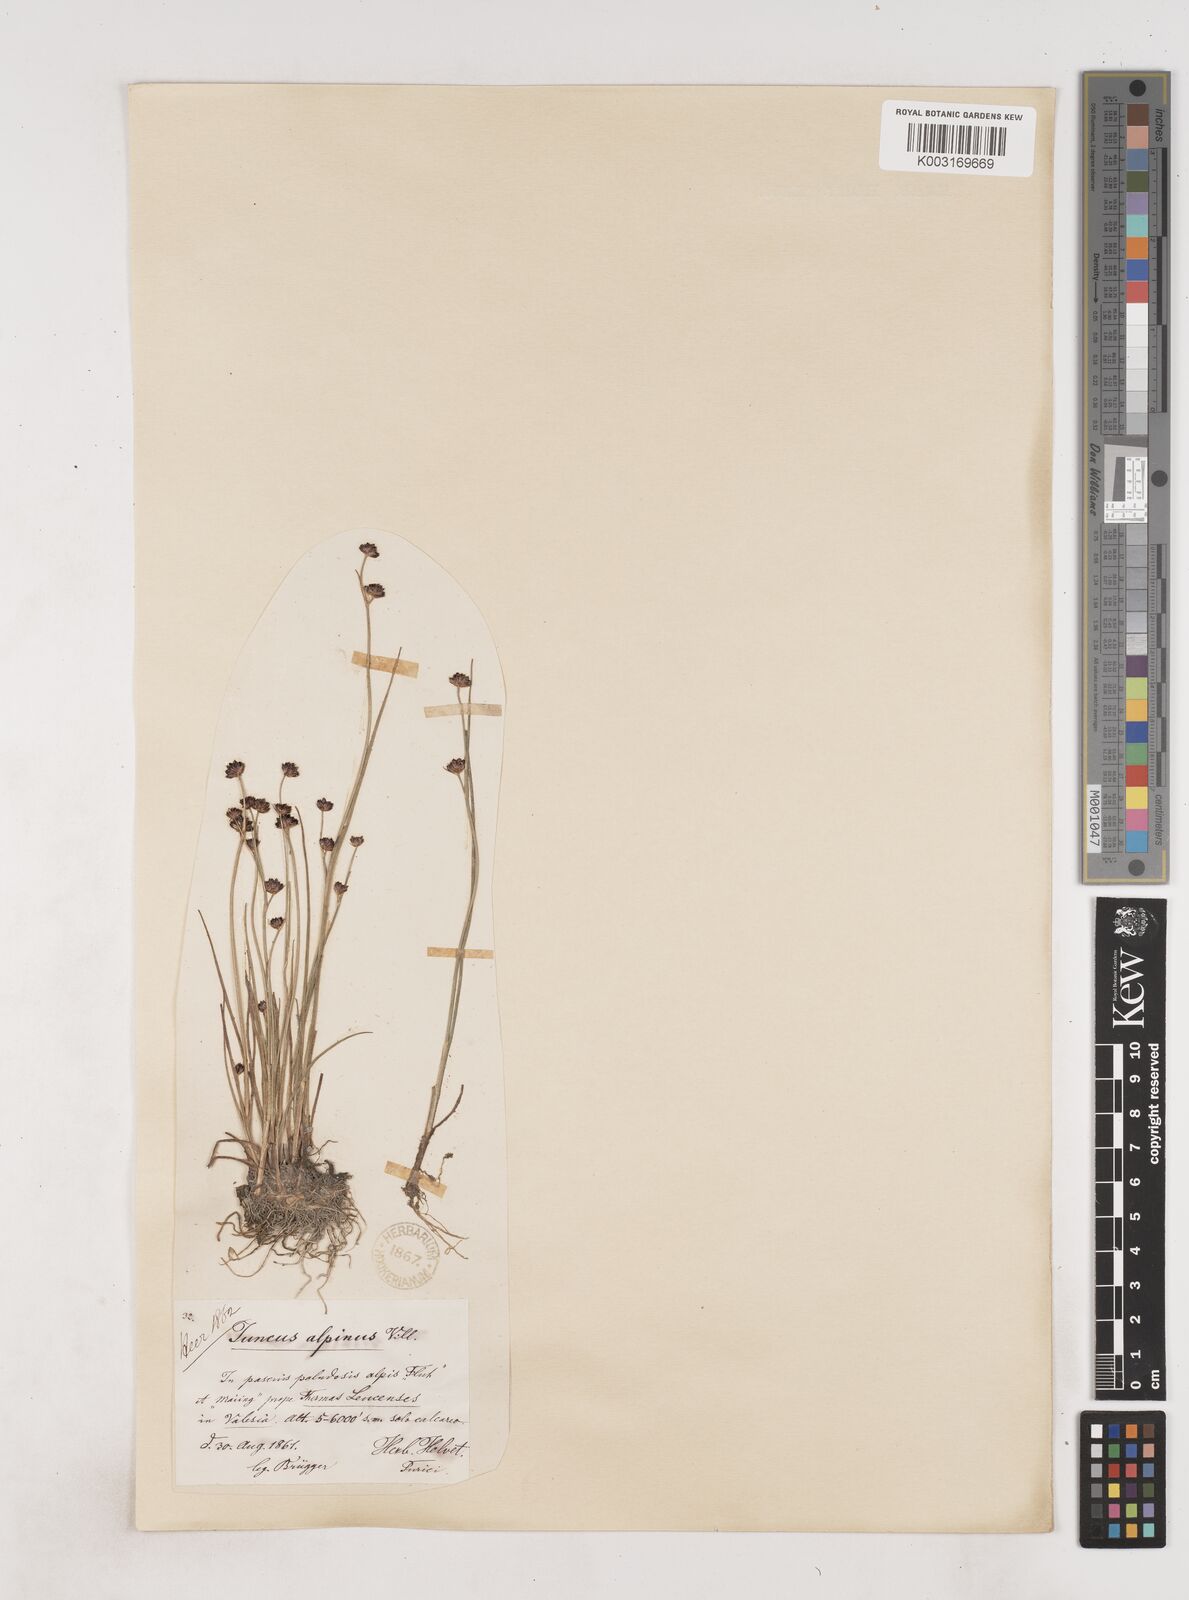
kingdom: Plantae
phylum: Tracheophyta
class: Liliopsida
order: Poales
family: Juncaceae
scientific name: Juncaceae
